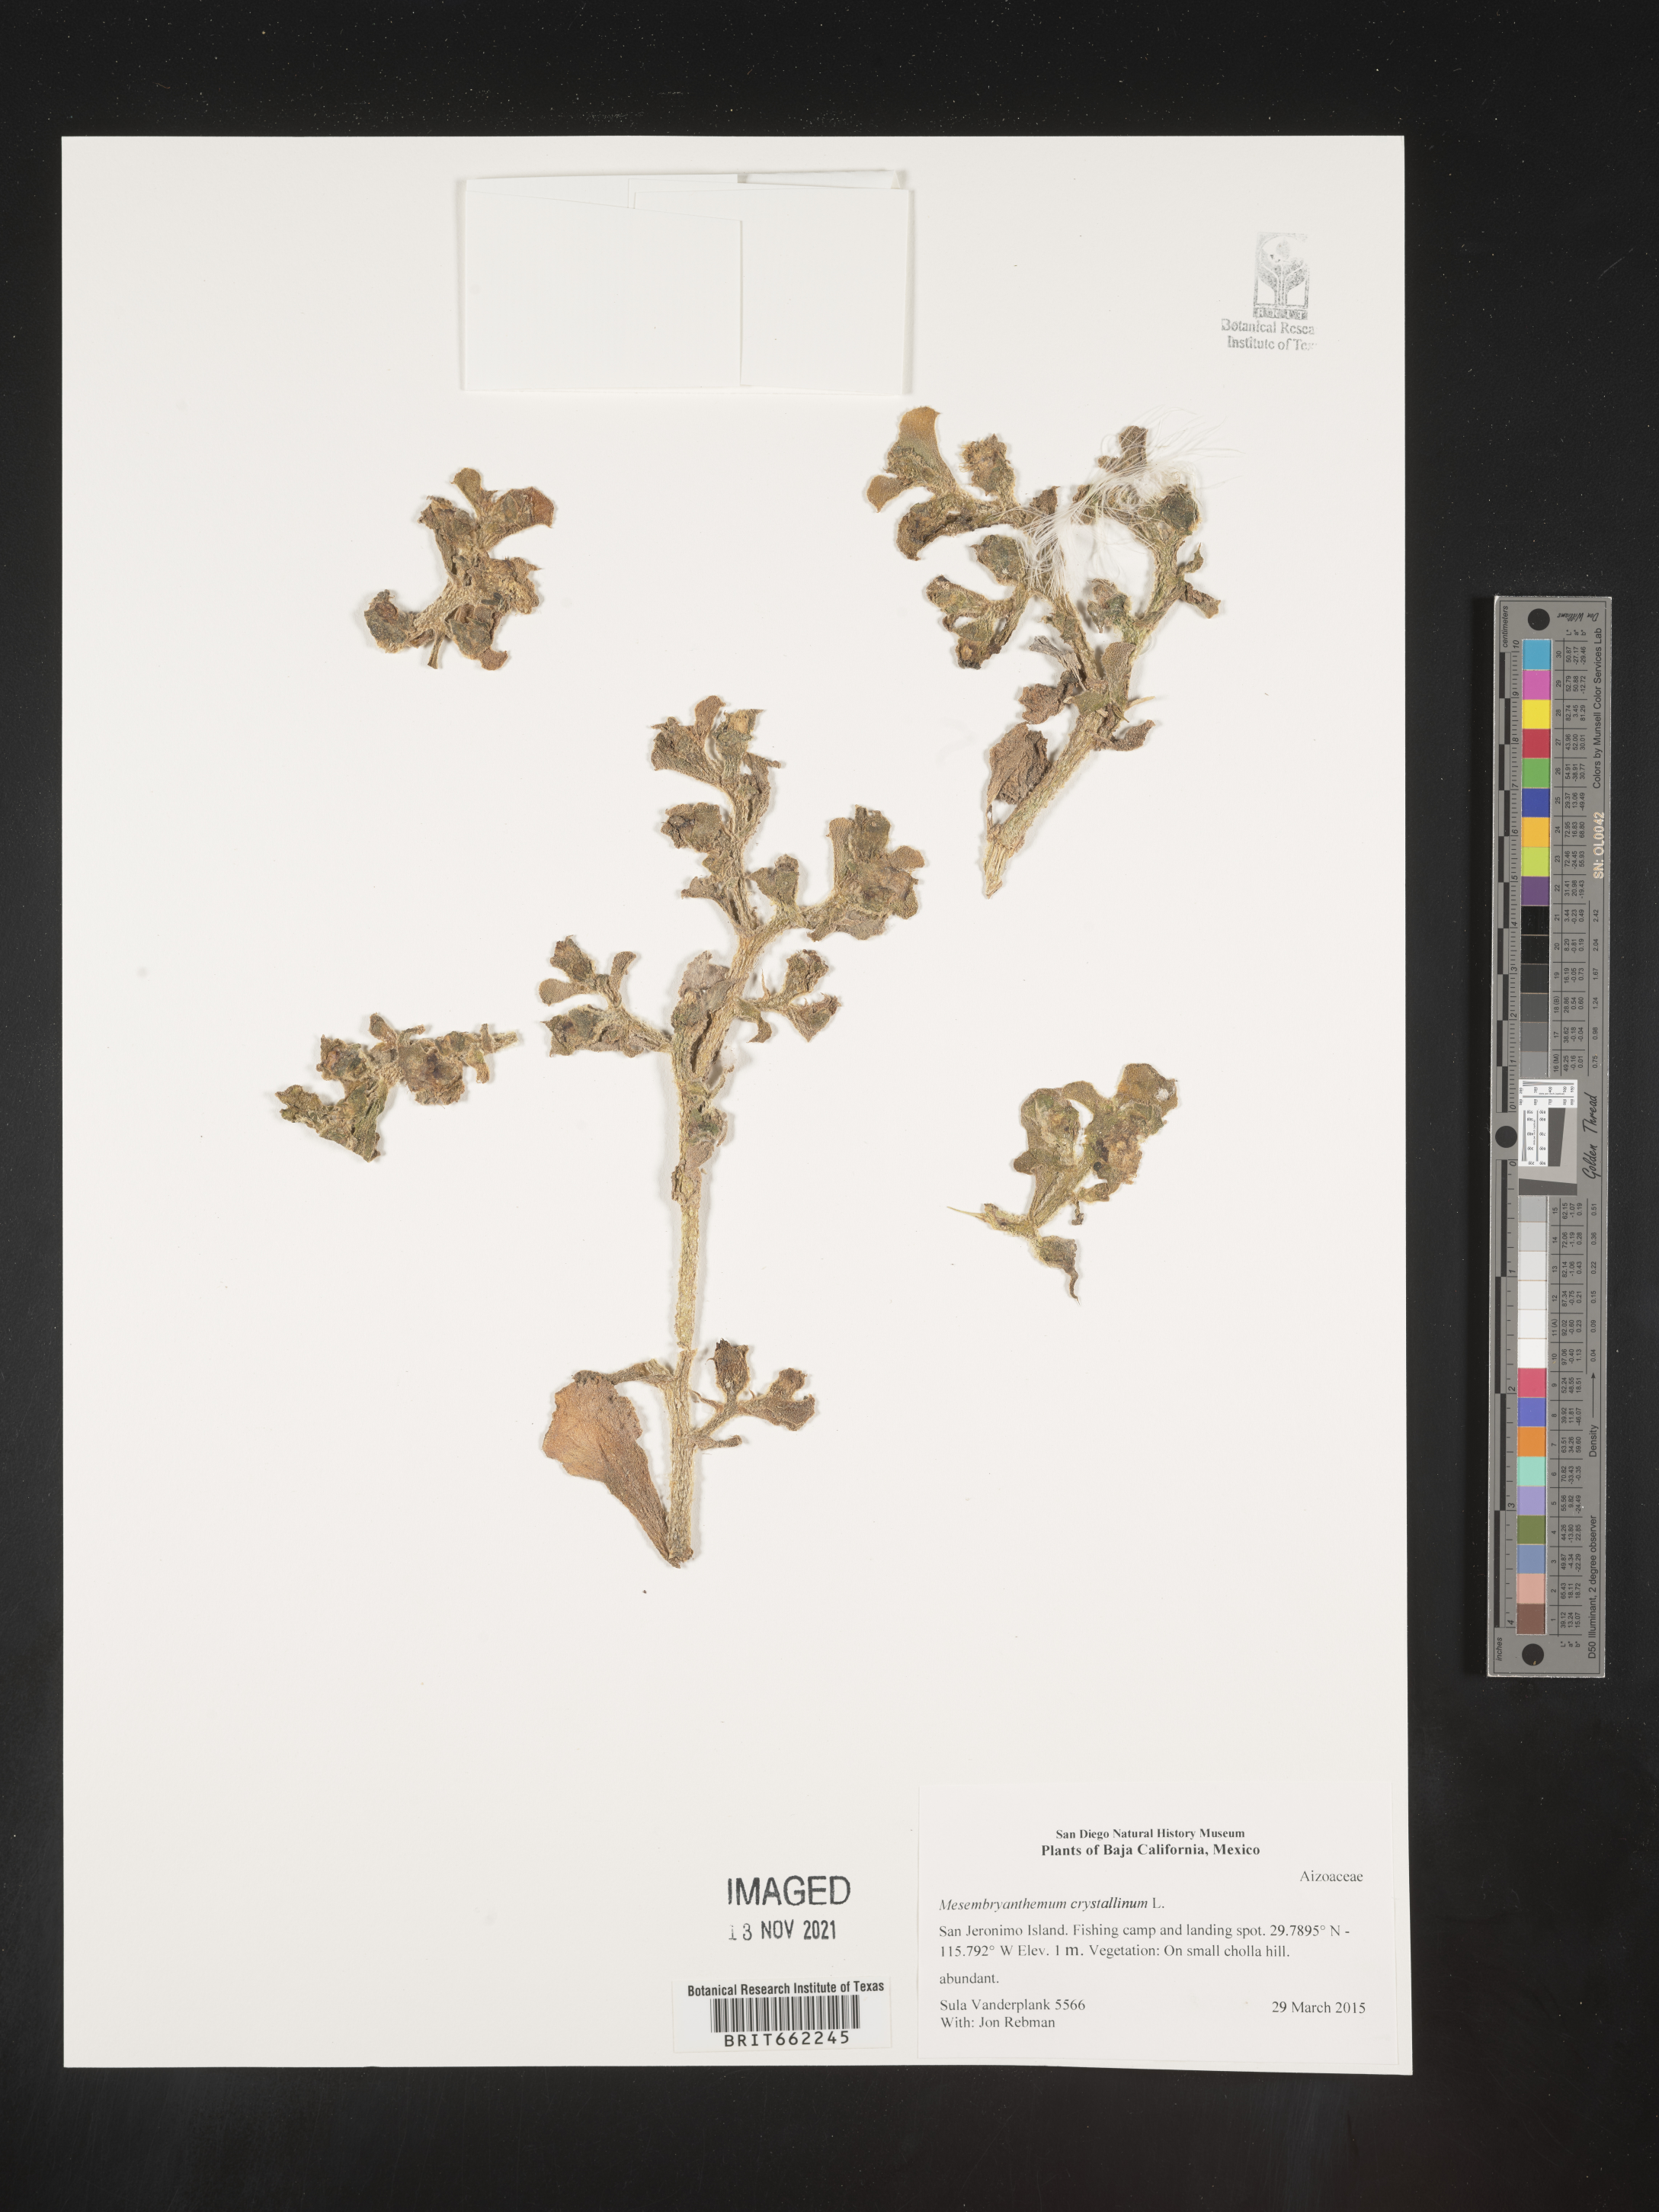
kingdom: Plantae
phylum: Tracheophyta
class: Magnoliopsida
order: Caryophyllales
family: Aizoaceae
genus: Mesembryanthemum
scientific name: Mesembryanthemum
